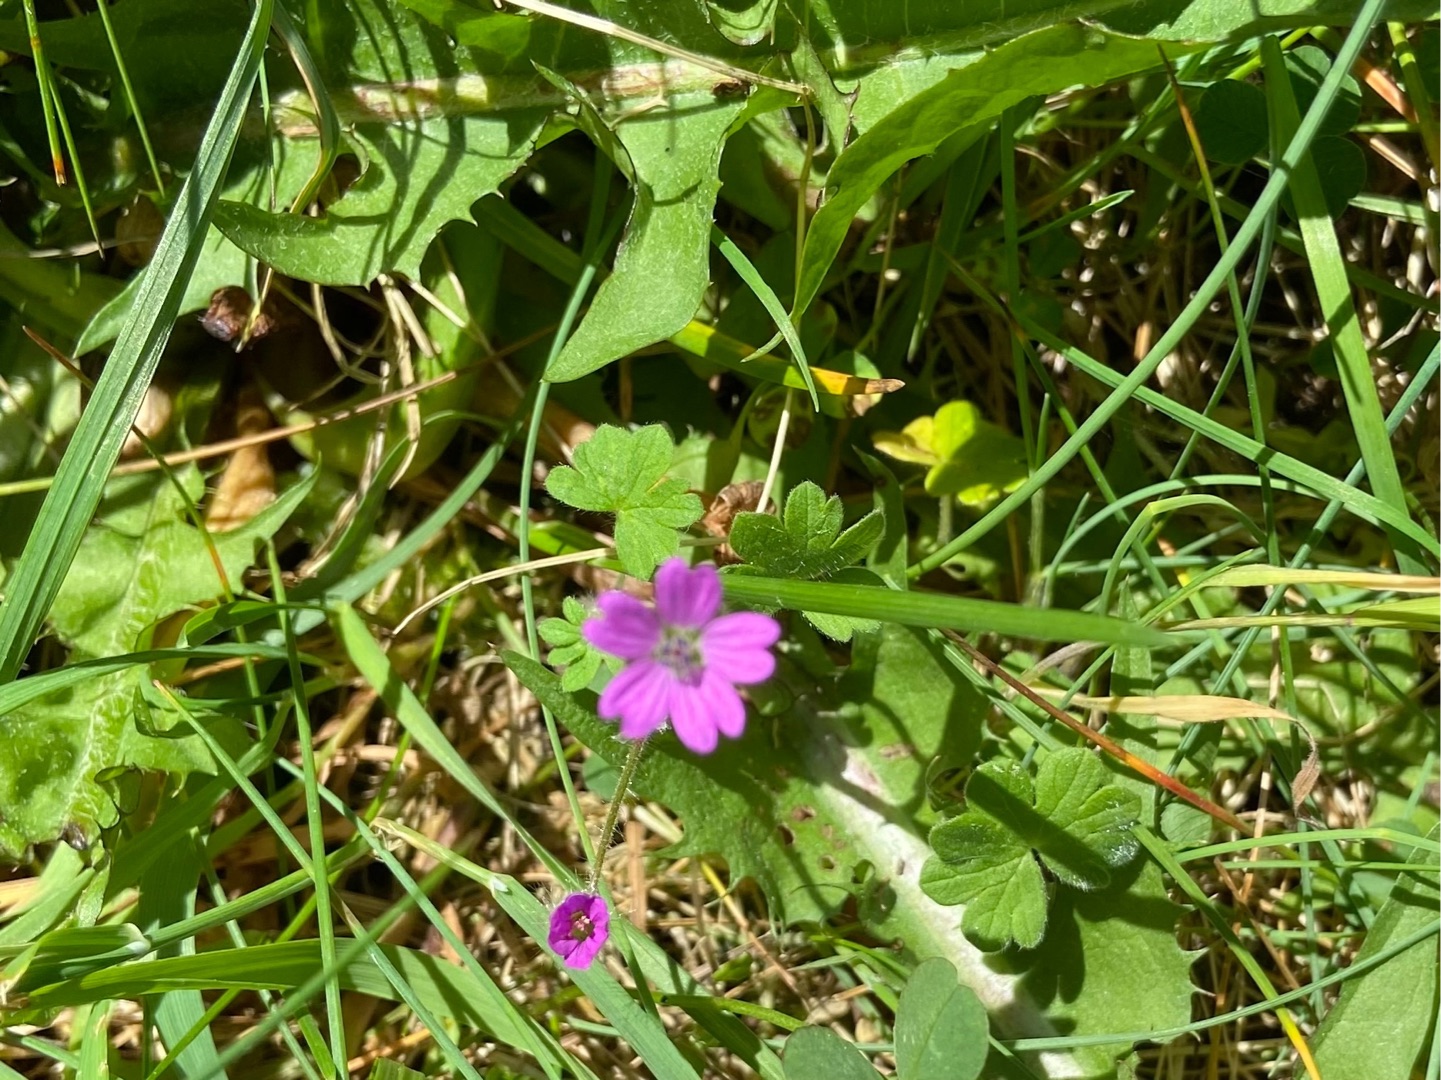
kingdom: Plantae
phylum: Tracheophyta
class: Magnoliopsida
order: Geraniales
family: Geraniaceae
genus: Geranium
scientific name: Geranium molle
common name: Blød storkenæb
